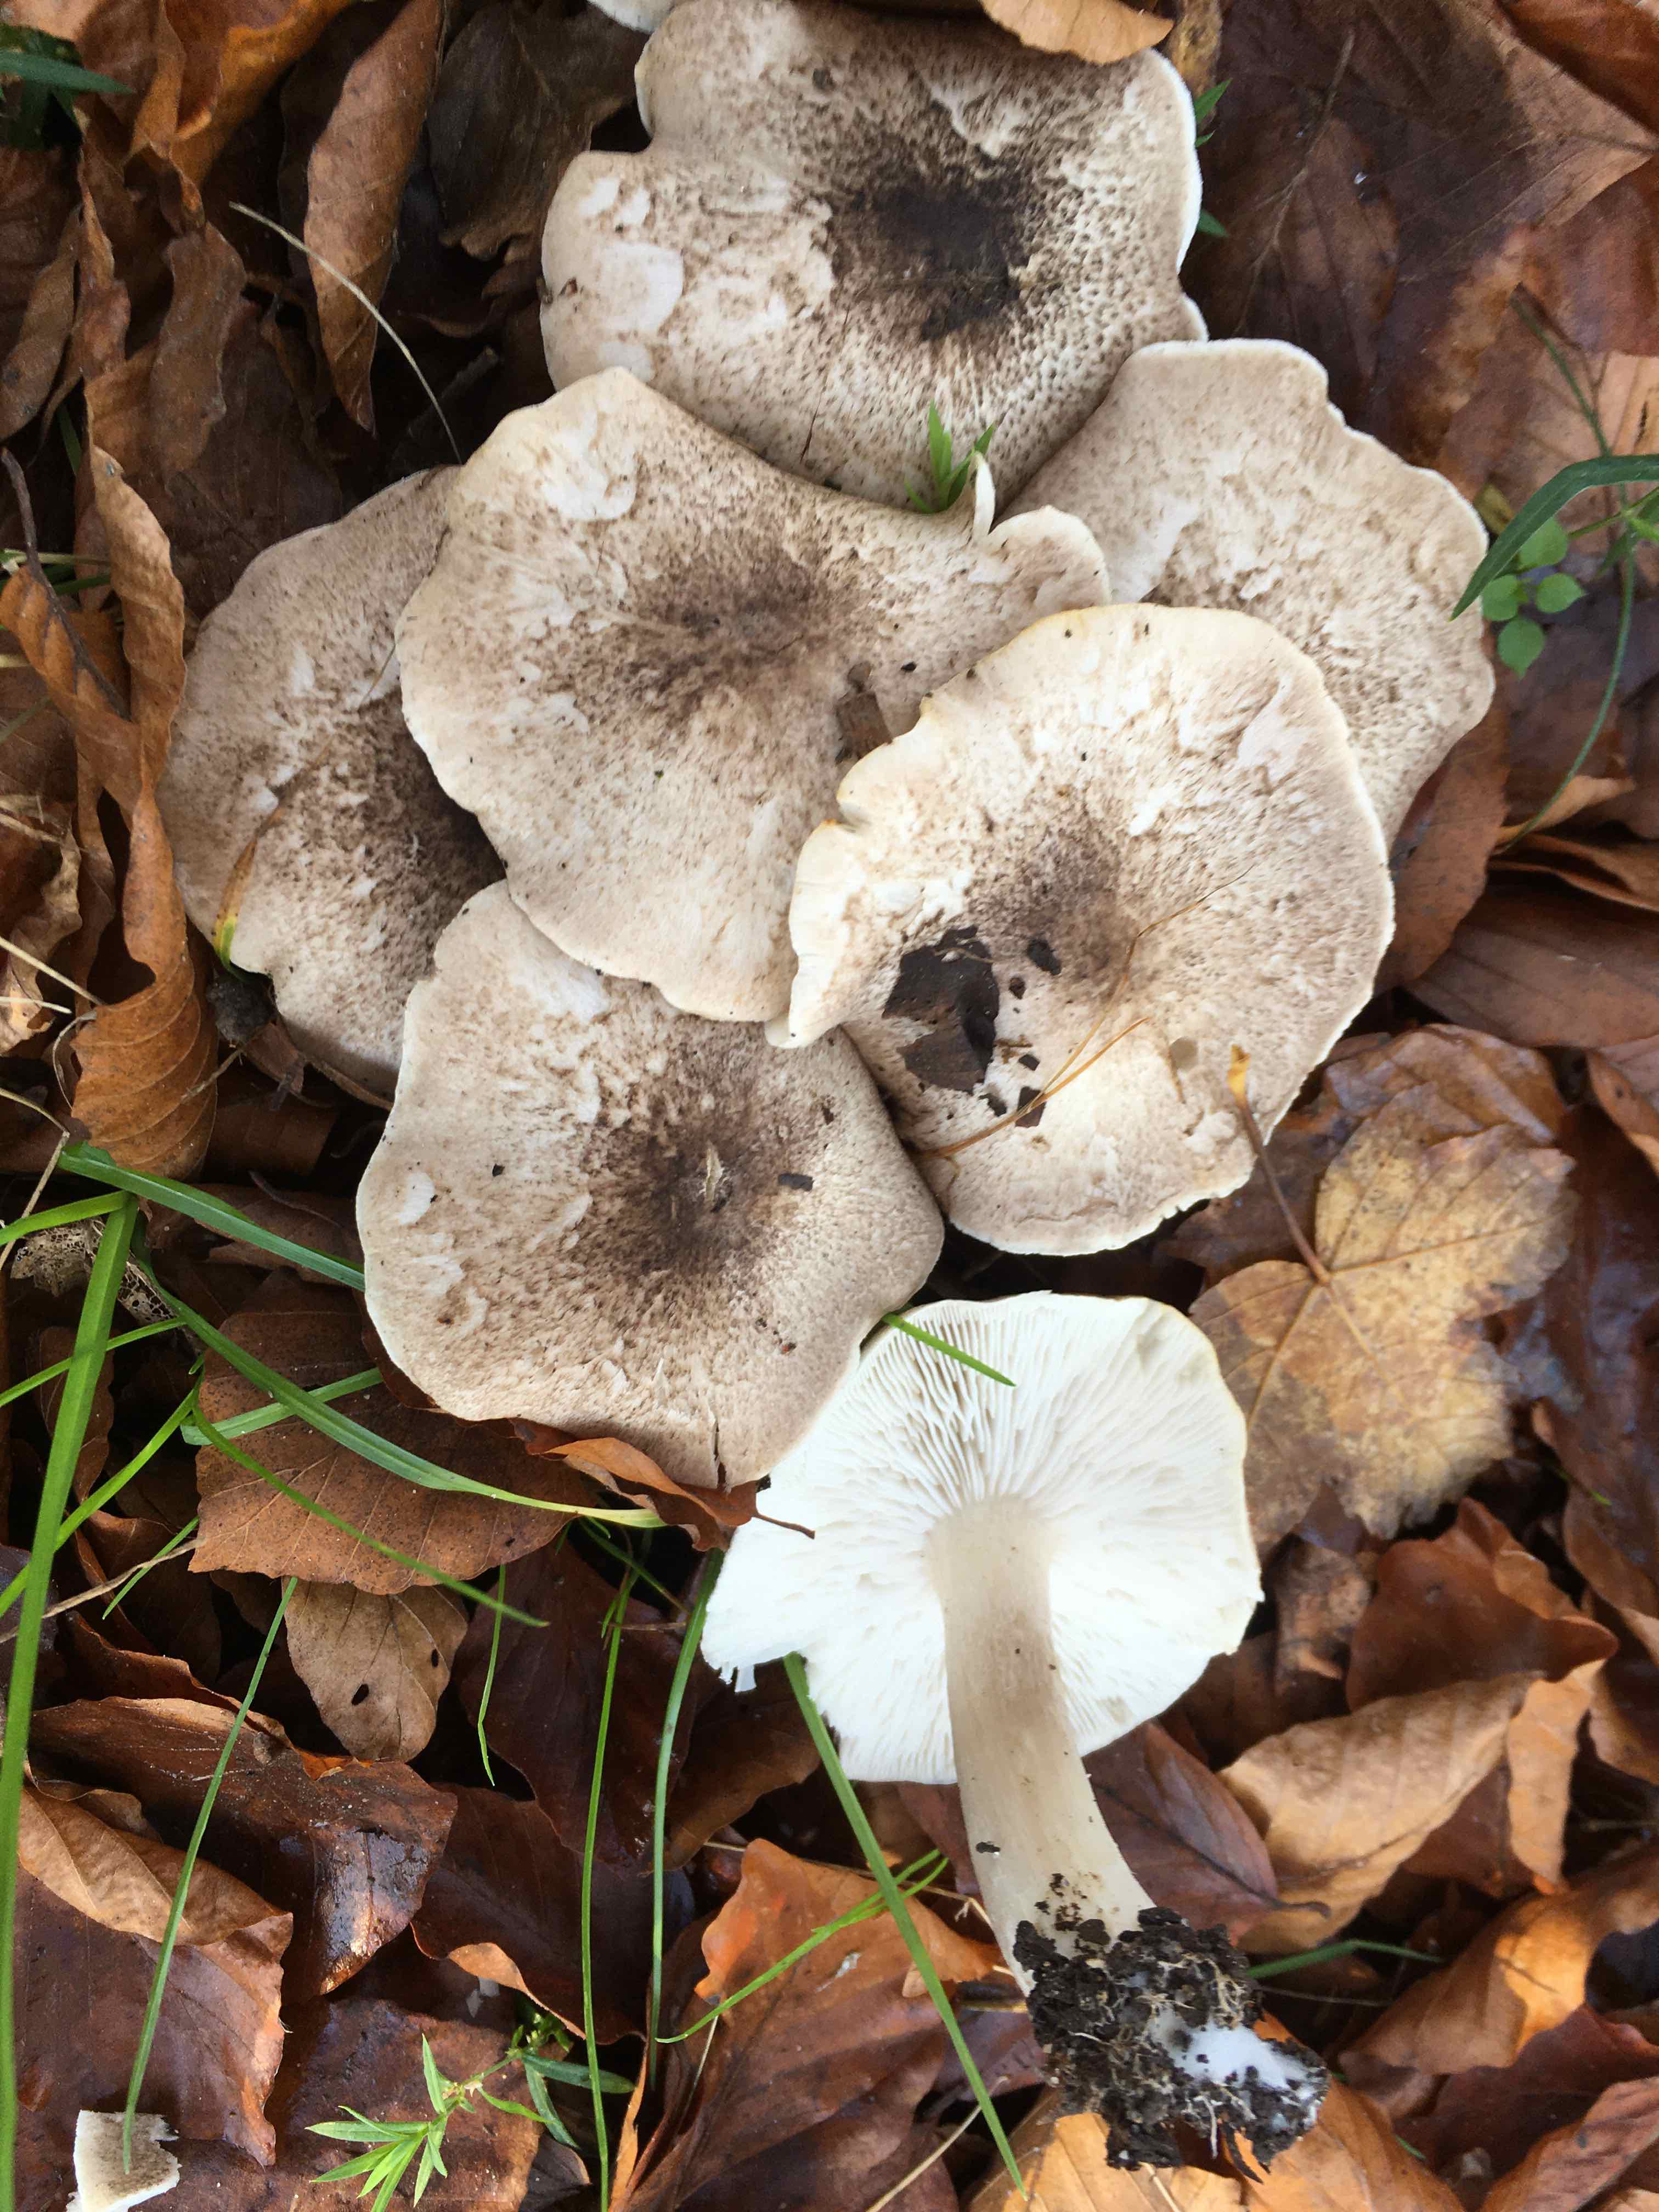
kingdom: Fungi
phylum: Basidiomycota
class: Agaricomycetes
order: Agaricales
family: Tricholomataceae
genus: Tricholoma
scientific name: Tricholoma scalpturatum
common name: gulplettet ridderhat
